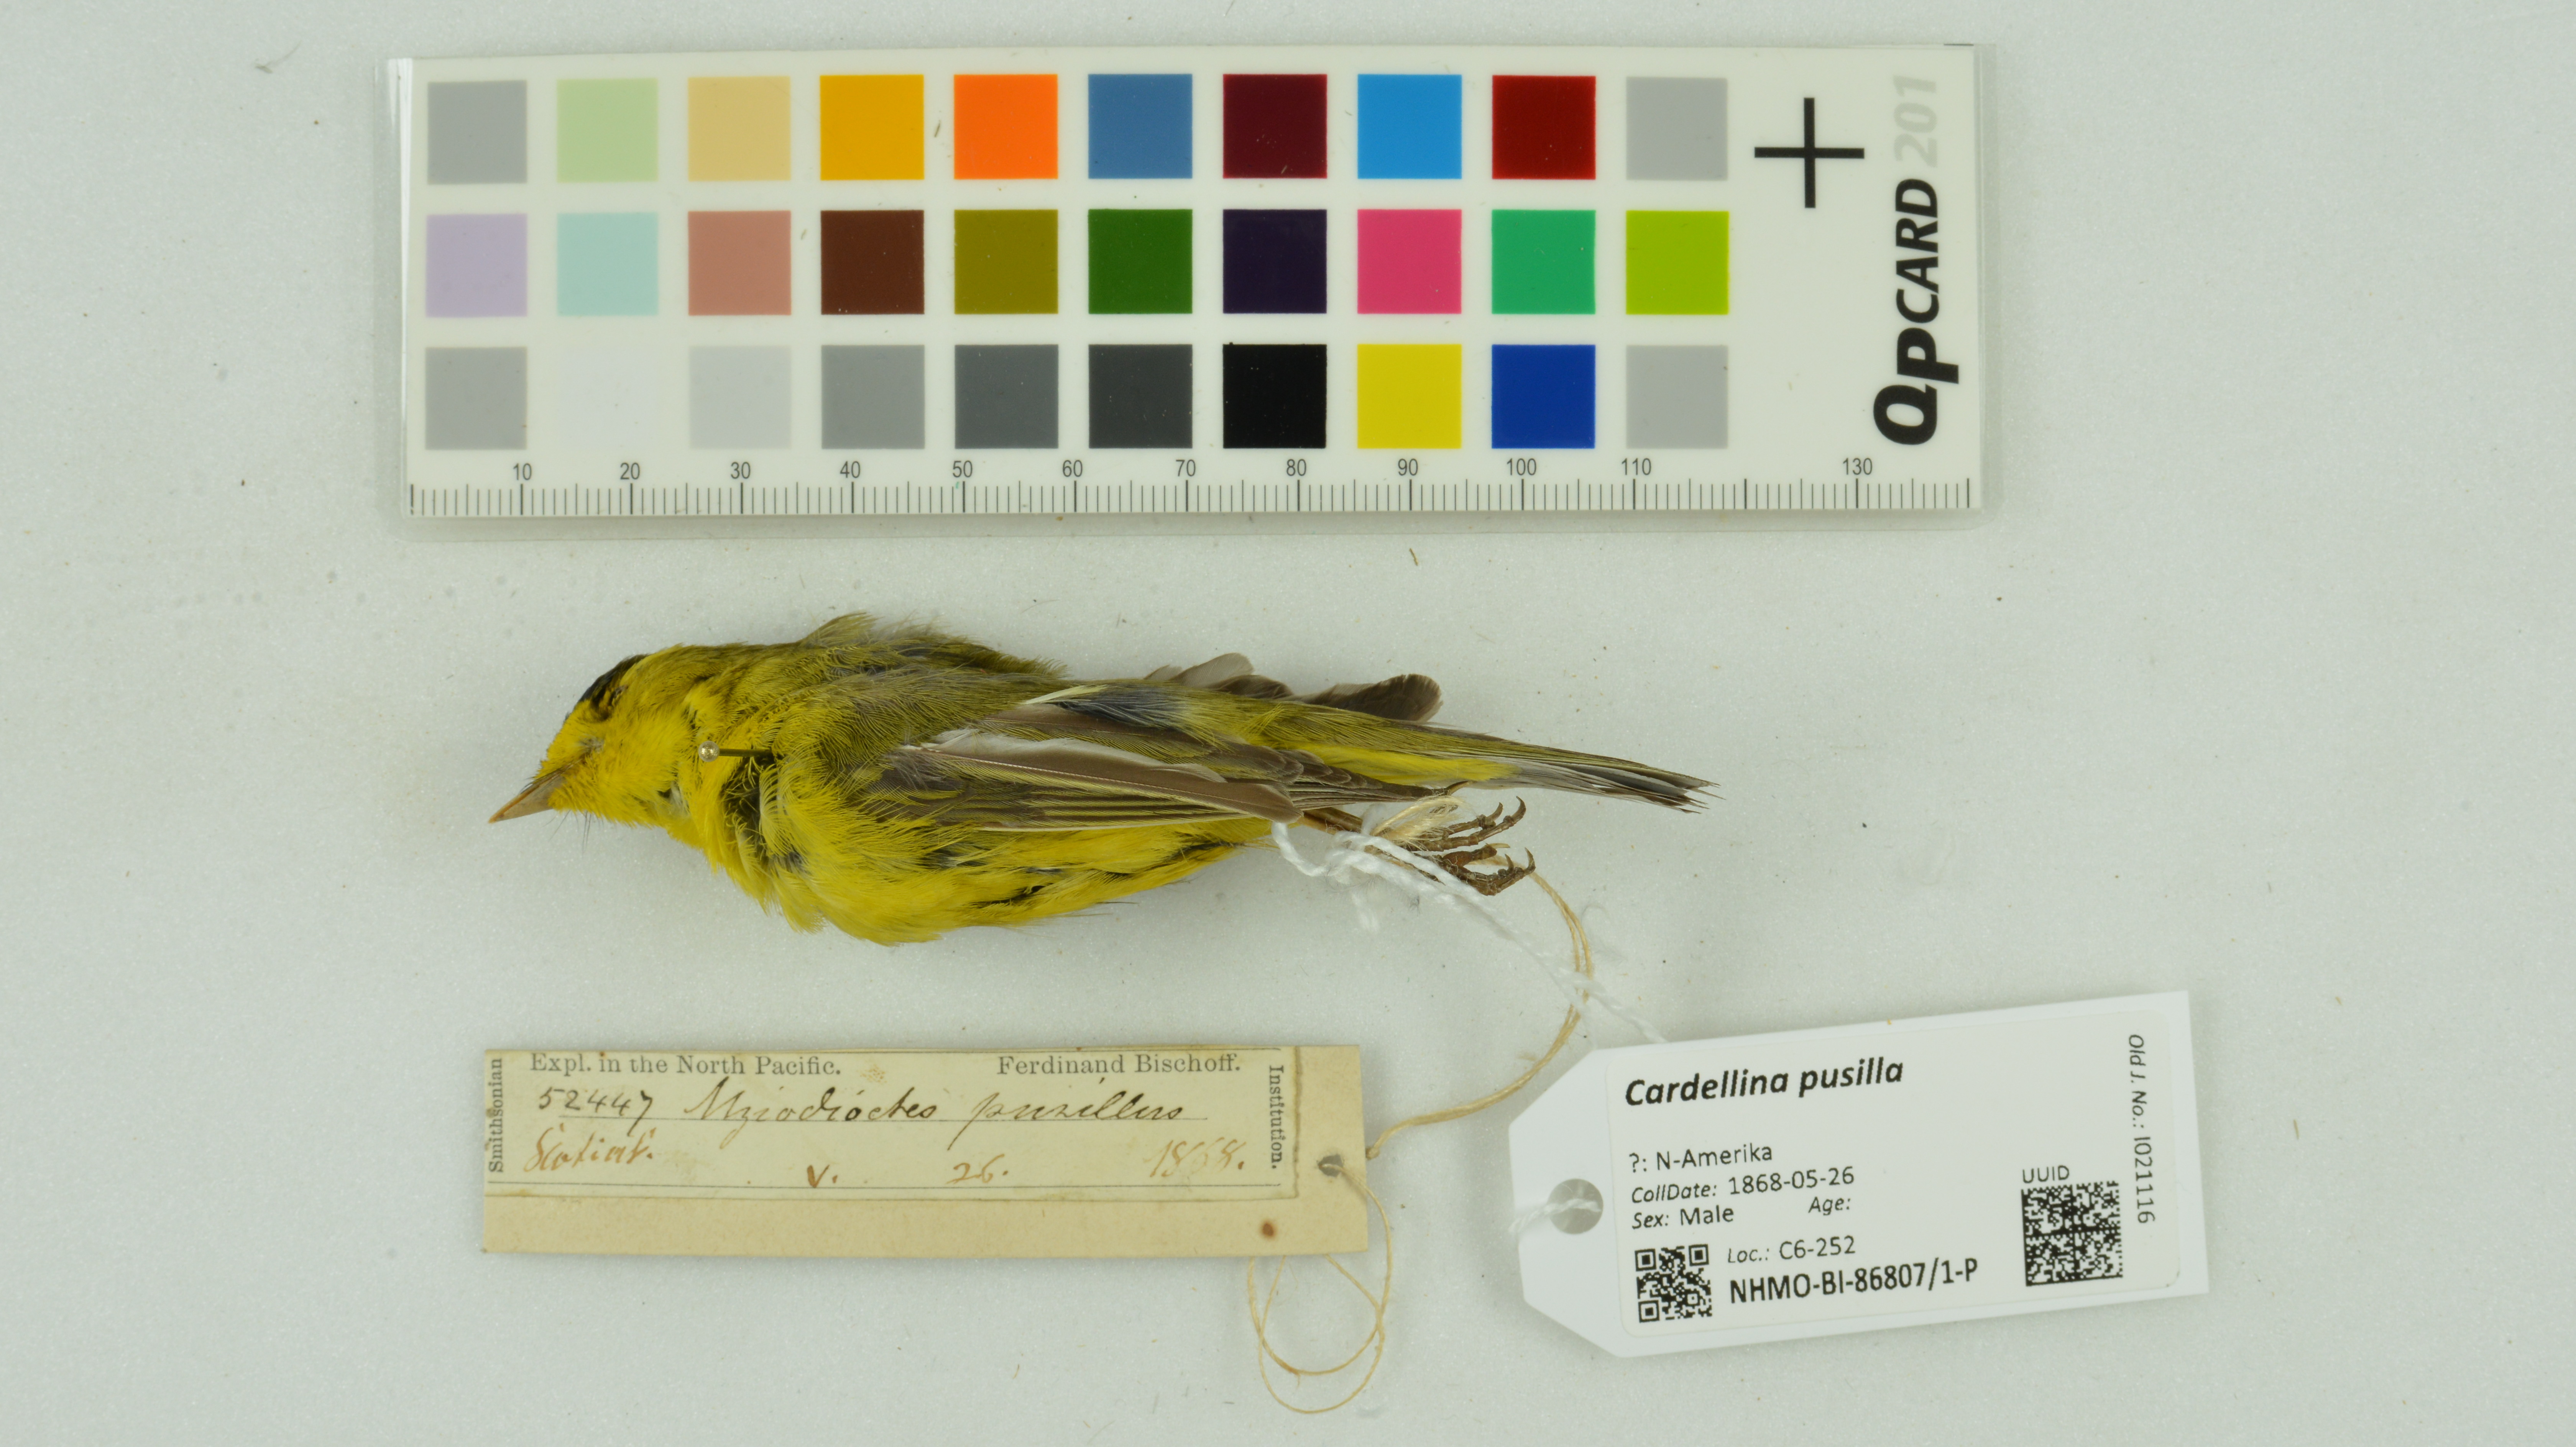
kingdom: Animalia
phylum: Chordata
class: Aves
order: Passeriformes
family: Parulidae
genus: Cardellina
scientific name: Cardellina pusilla
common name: Wilson's warbler
